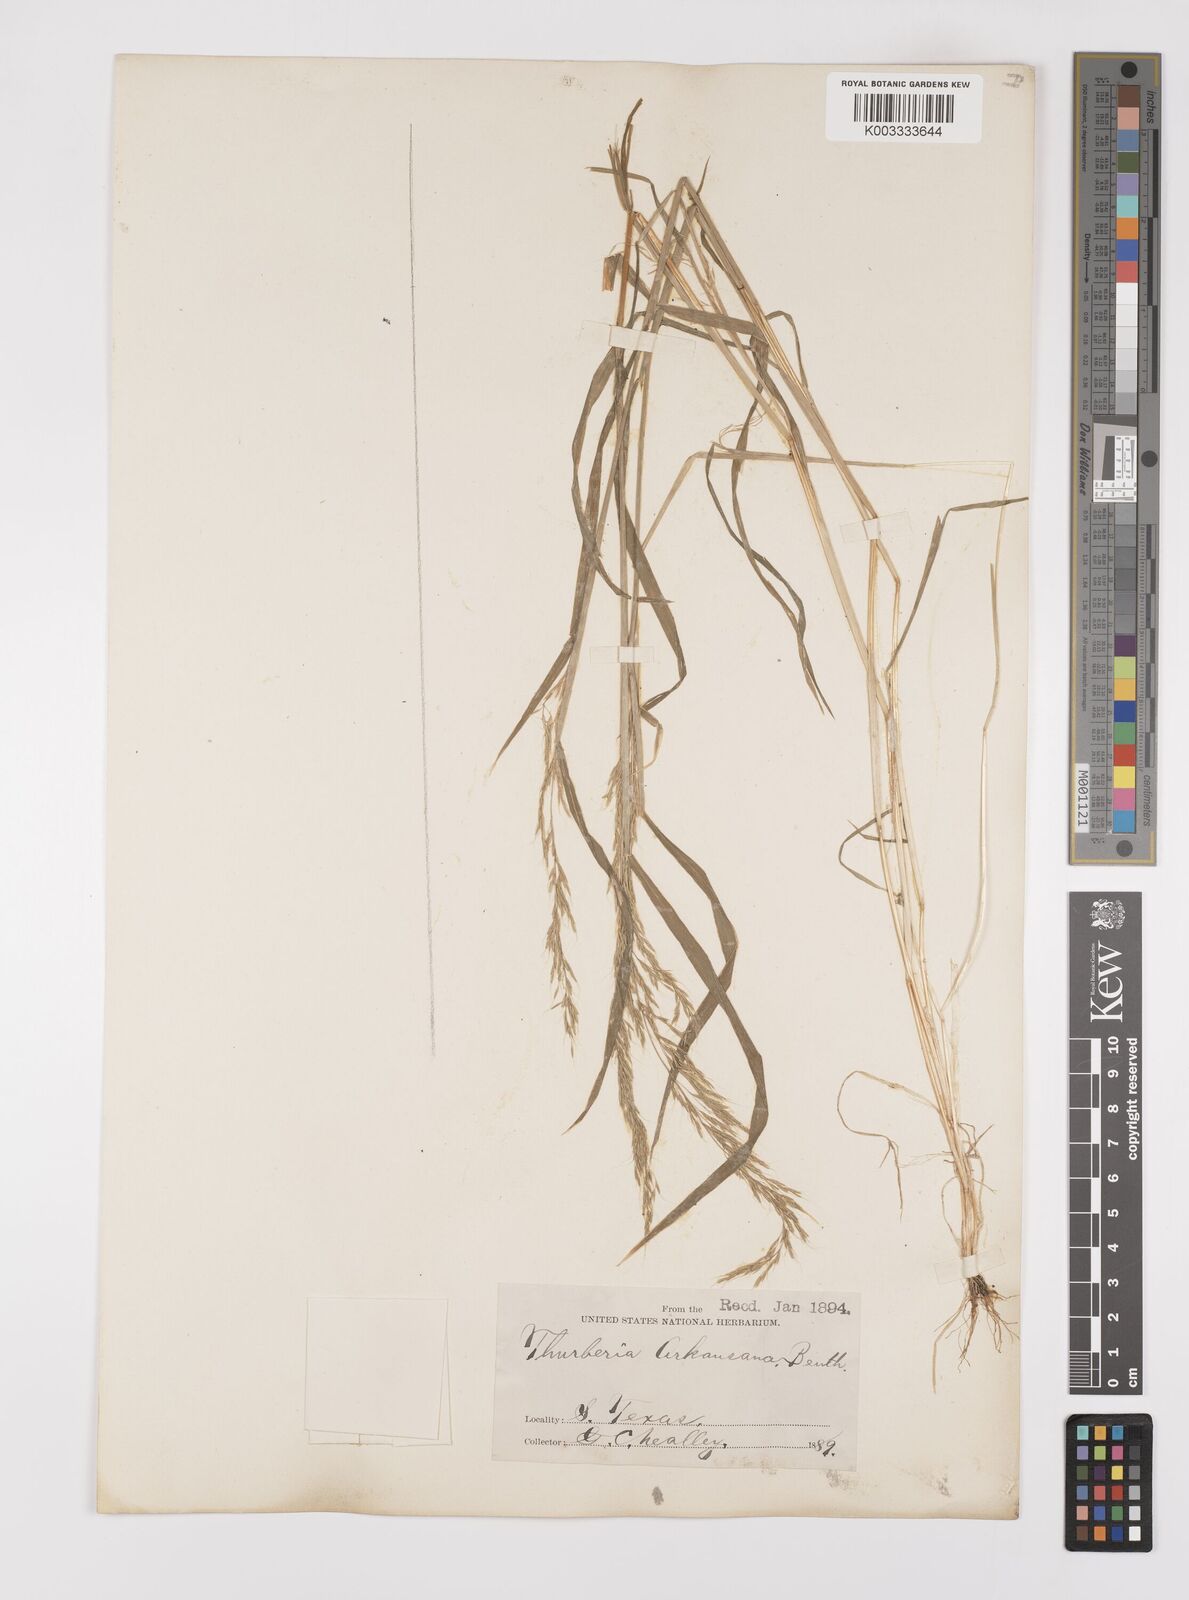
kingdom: Plantae
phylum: Tracheophyta
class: Liliopsida
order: Poales
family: Poaceae
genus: Limnodea
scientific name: Limnodea arkansana
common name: Ozark-grass
